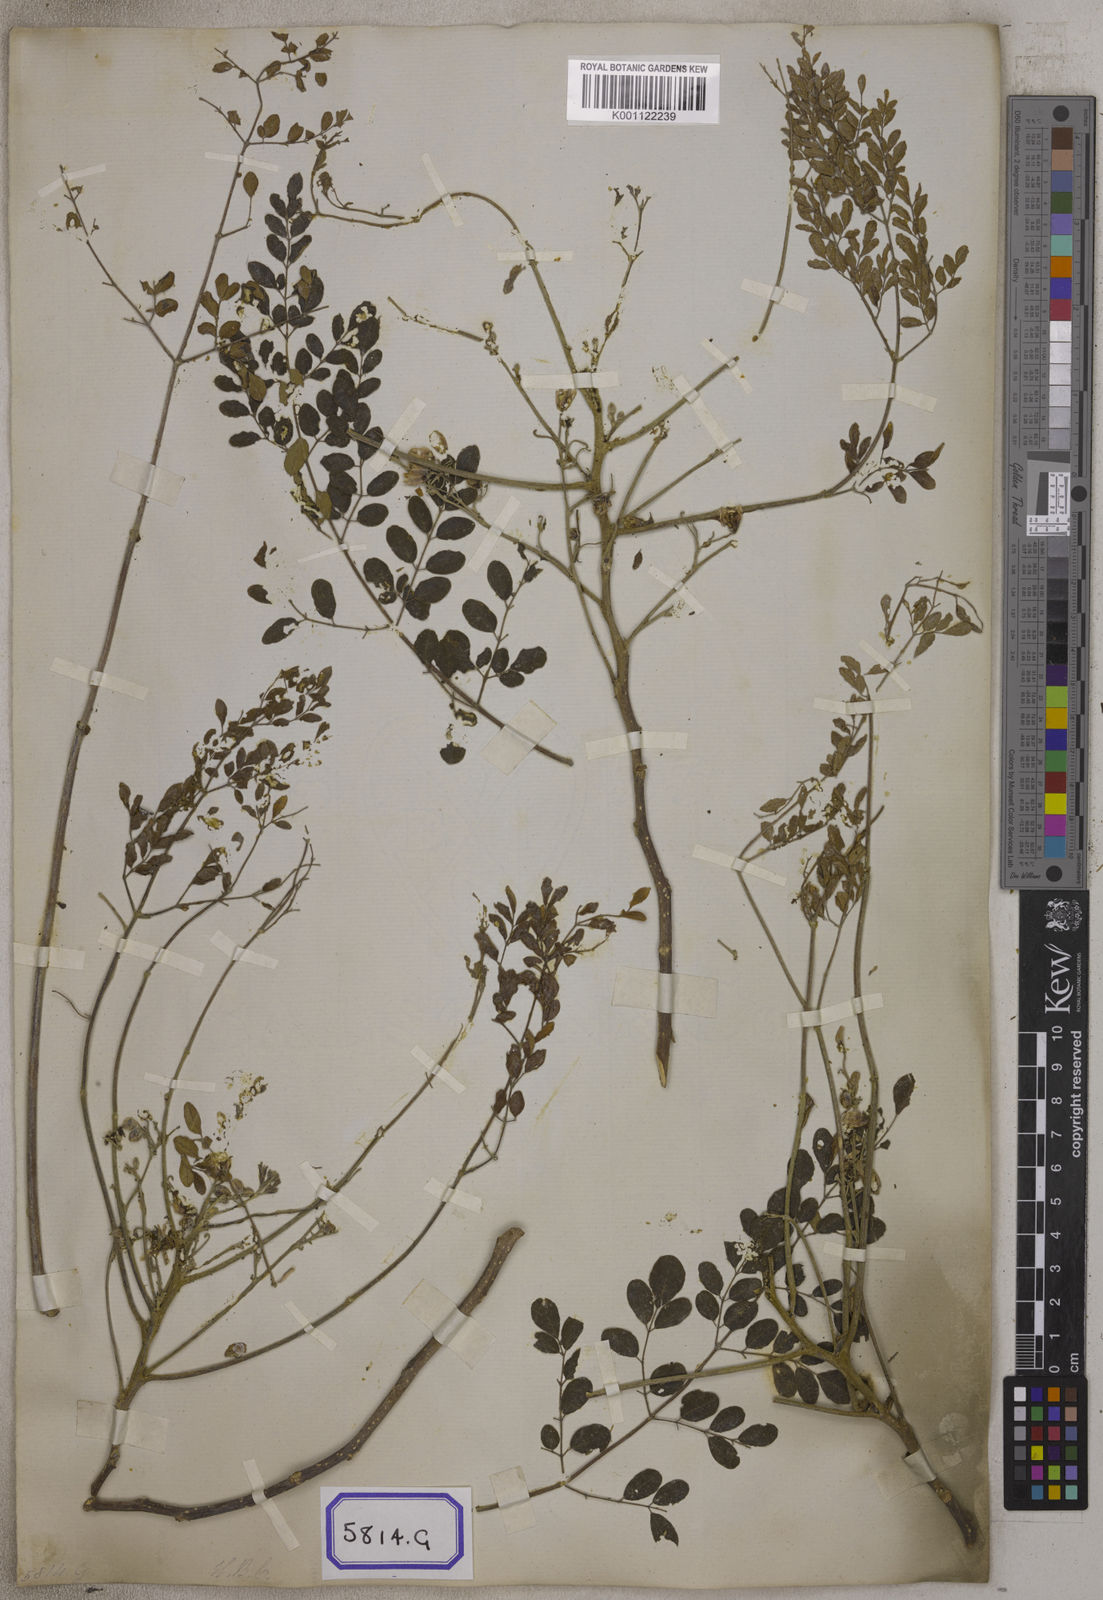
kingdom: Plantae
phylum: Tracheophyta
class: Magnoliopsida
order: Brassicales
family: Moringaceae
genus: Moringa
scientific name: Moringa oleifera
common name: Horseradish-tree
